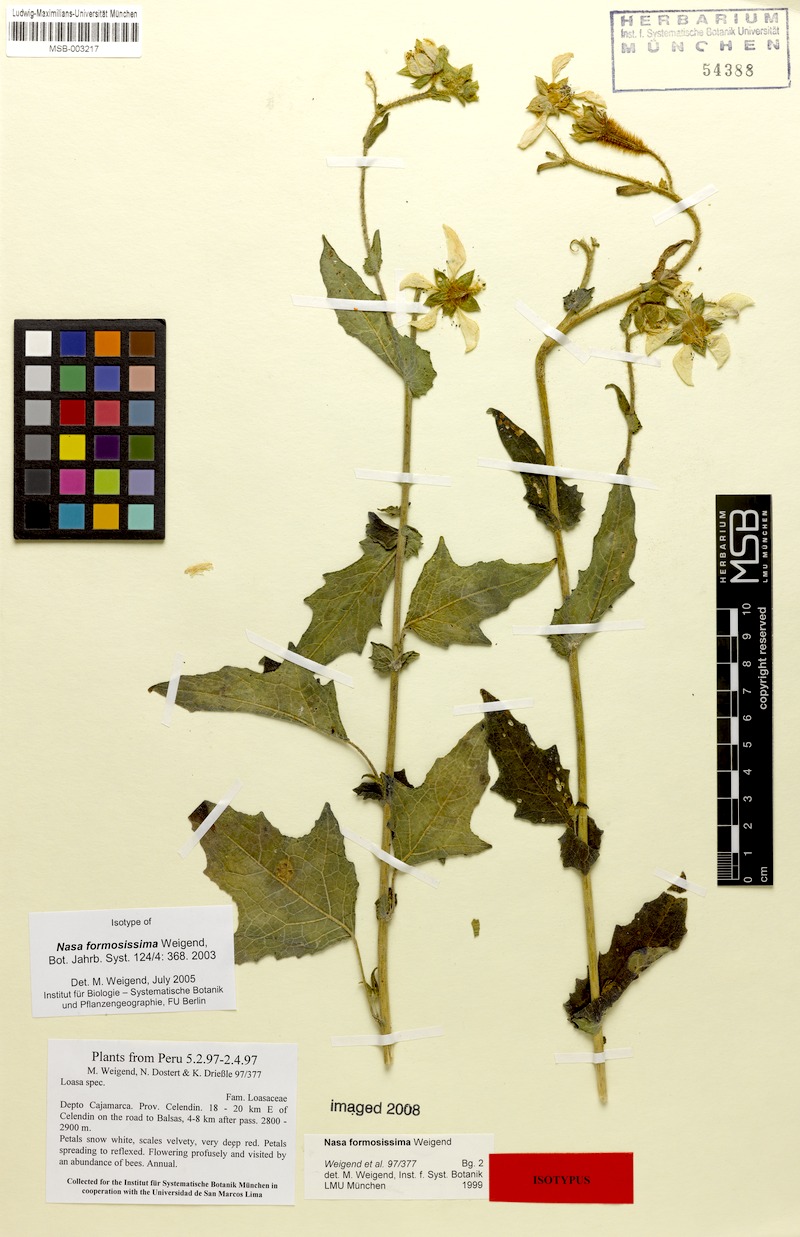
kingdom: Plantae
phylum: Tracheophyta
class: Magnoliopsida
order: Cornales
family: Loasaceae
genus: Nasa
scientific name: Nasa formosissima
